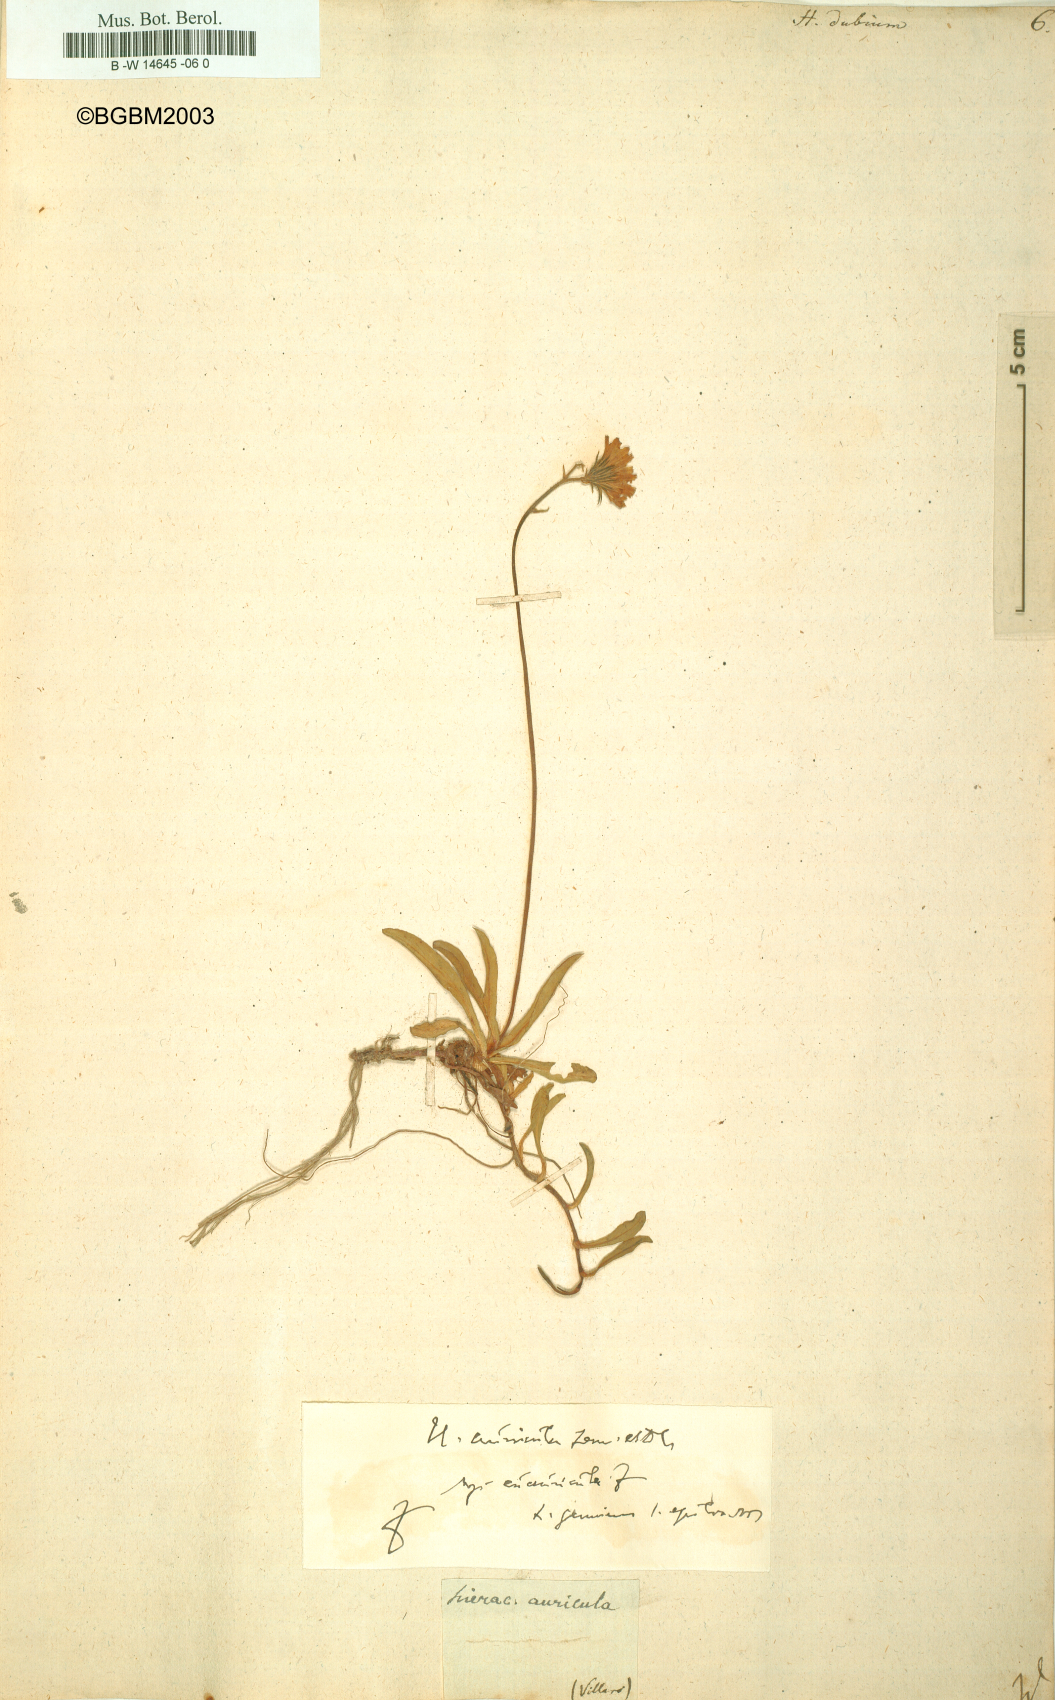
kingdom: Plantae
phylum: Tracheophyta
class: Magnoliopsida
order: Asterales
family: Asteraceae
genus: Hieracium
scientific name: Hieracium dubium
